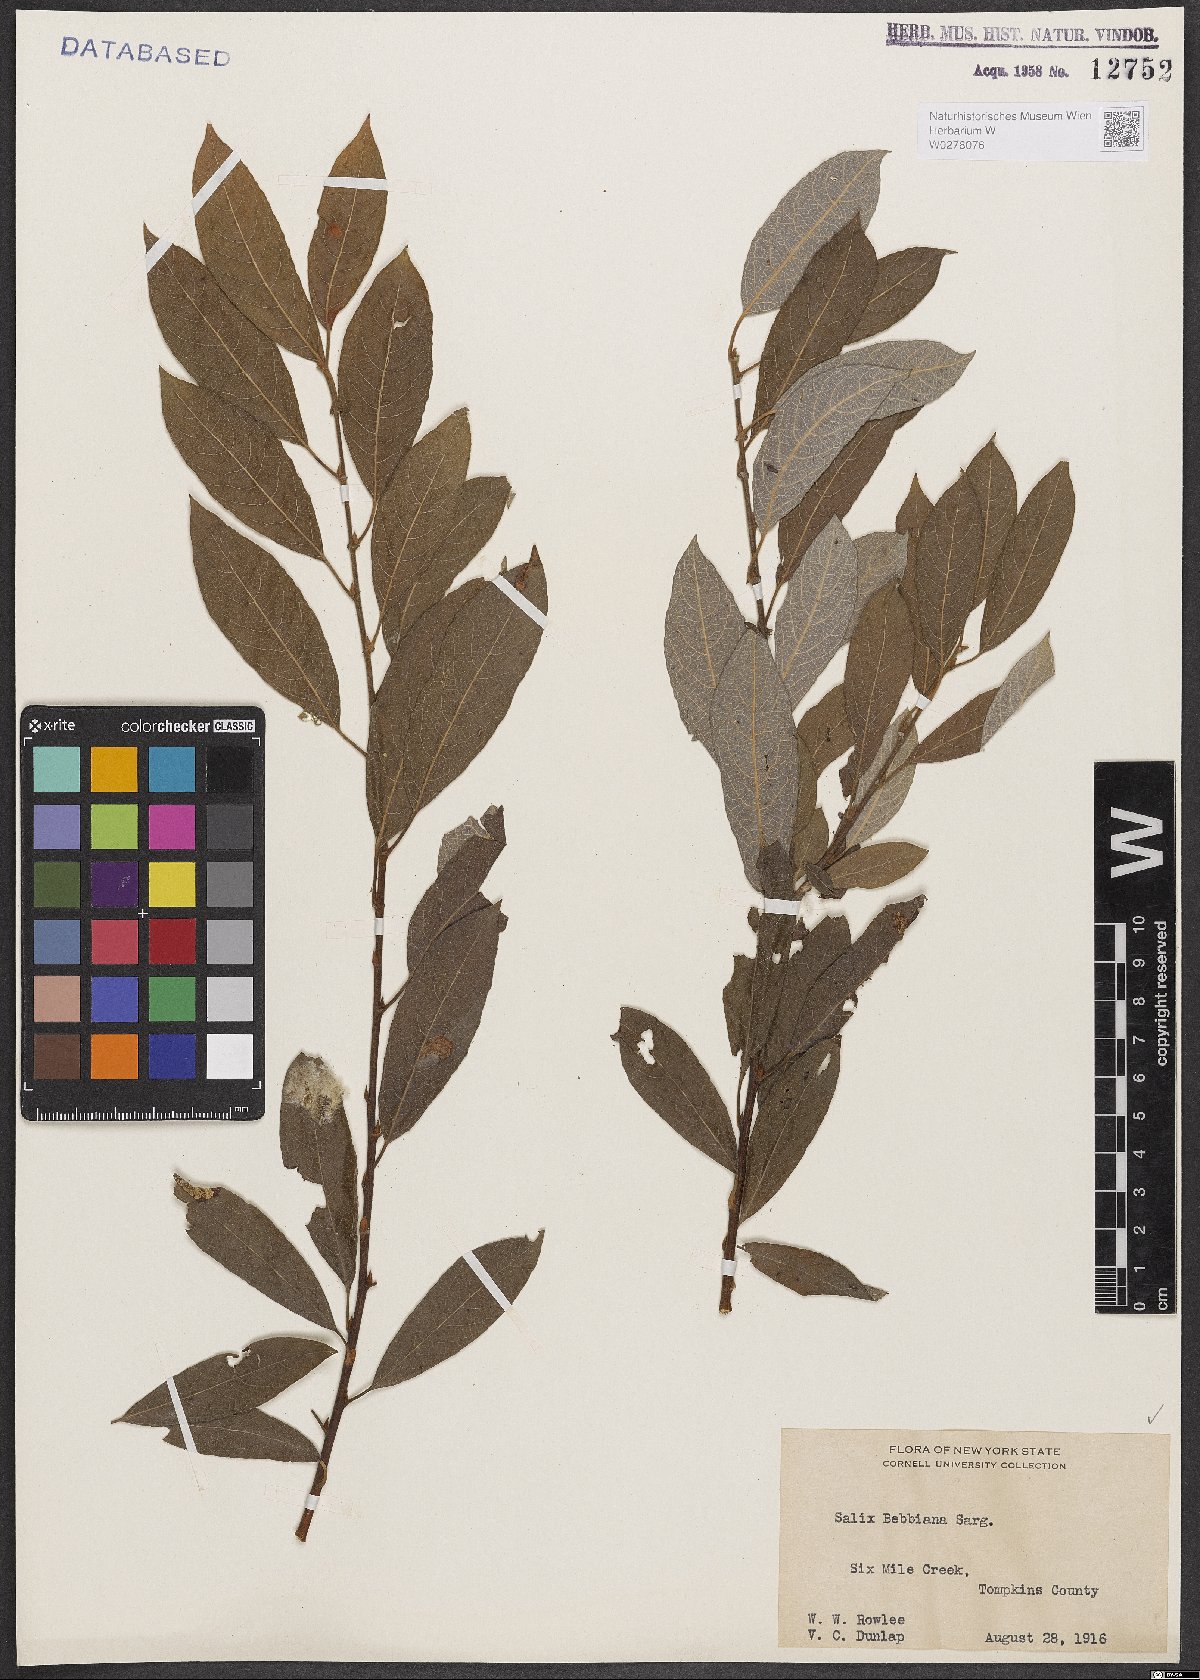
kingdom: Plantae
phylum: Tracheophyta
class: Magnoliopsida
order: Malpighiales
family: Salicaceae
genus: Salix
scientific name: Salix bebbiana
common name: Bebb's willow
